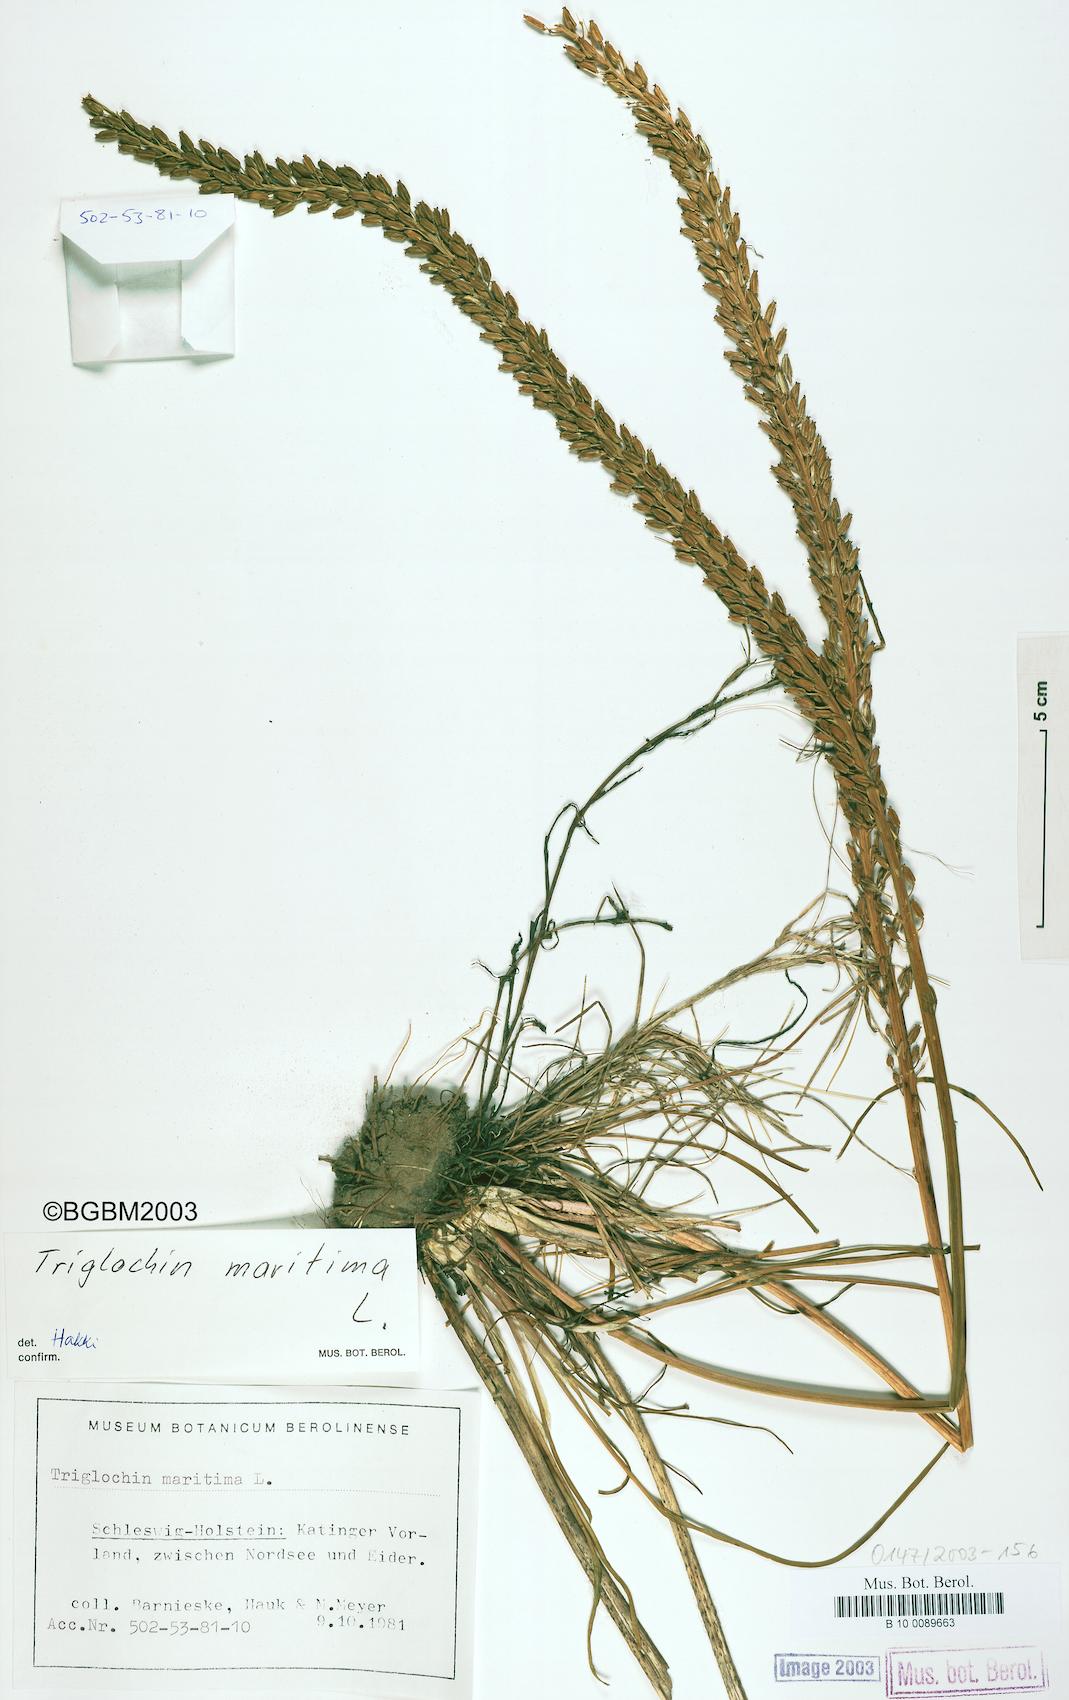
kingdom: Plantae
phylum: Tracheophyta
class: Liliopsida
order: Alismatales
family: Juncaginaceae
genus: Triglochin
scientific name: Triglochin maritima
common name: Sea arrowgrass
